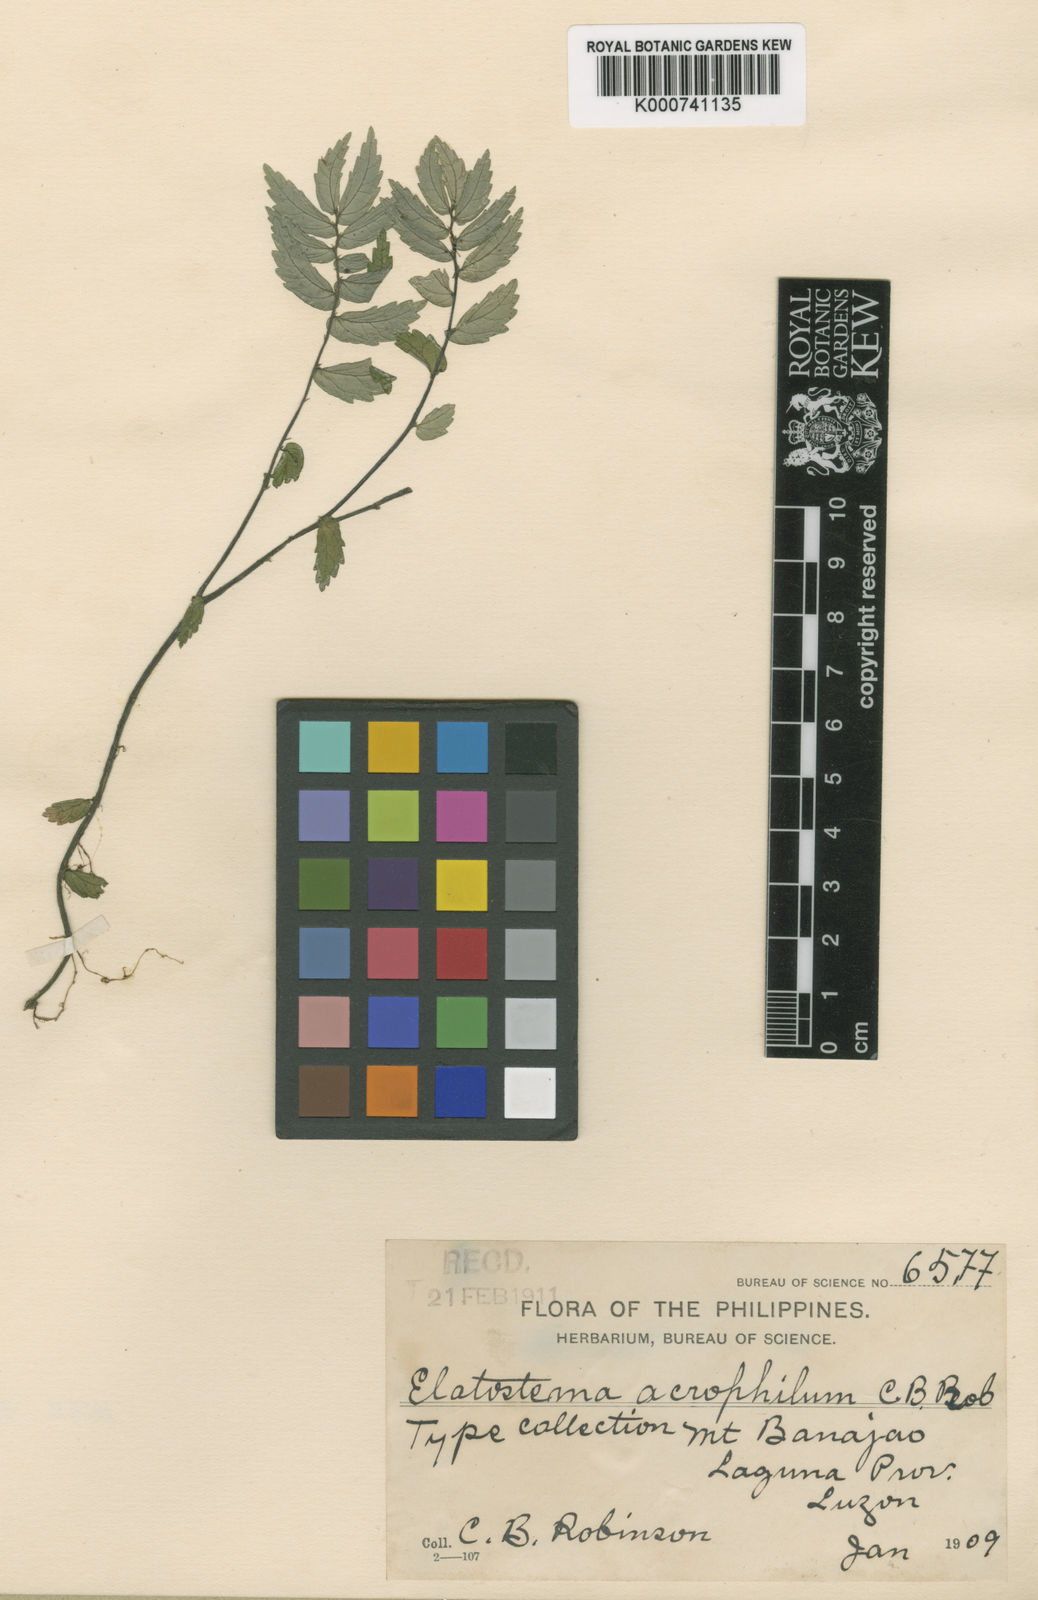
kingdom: Plantae
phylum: Tracheophyta
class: Magnoliopsida
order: Rosales
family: Urticaceae
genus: Elatostema
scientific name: Elatostema acrophilum
